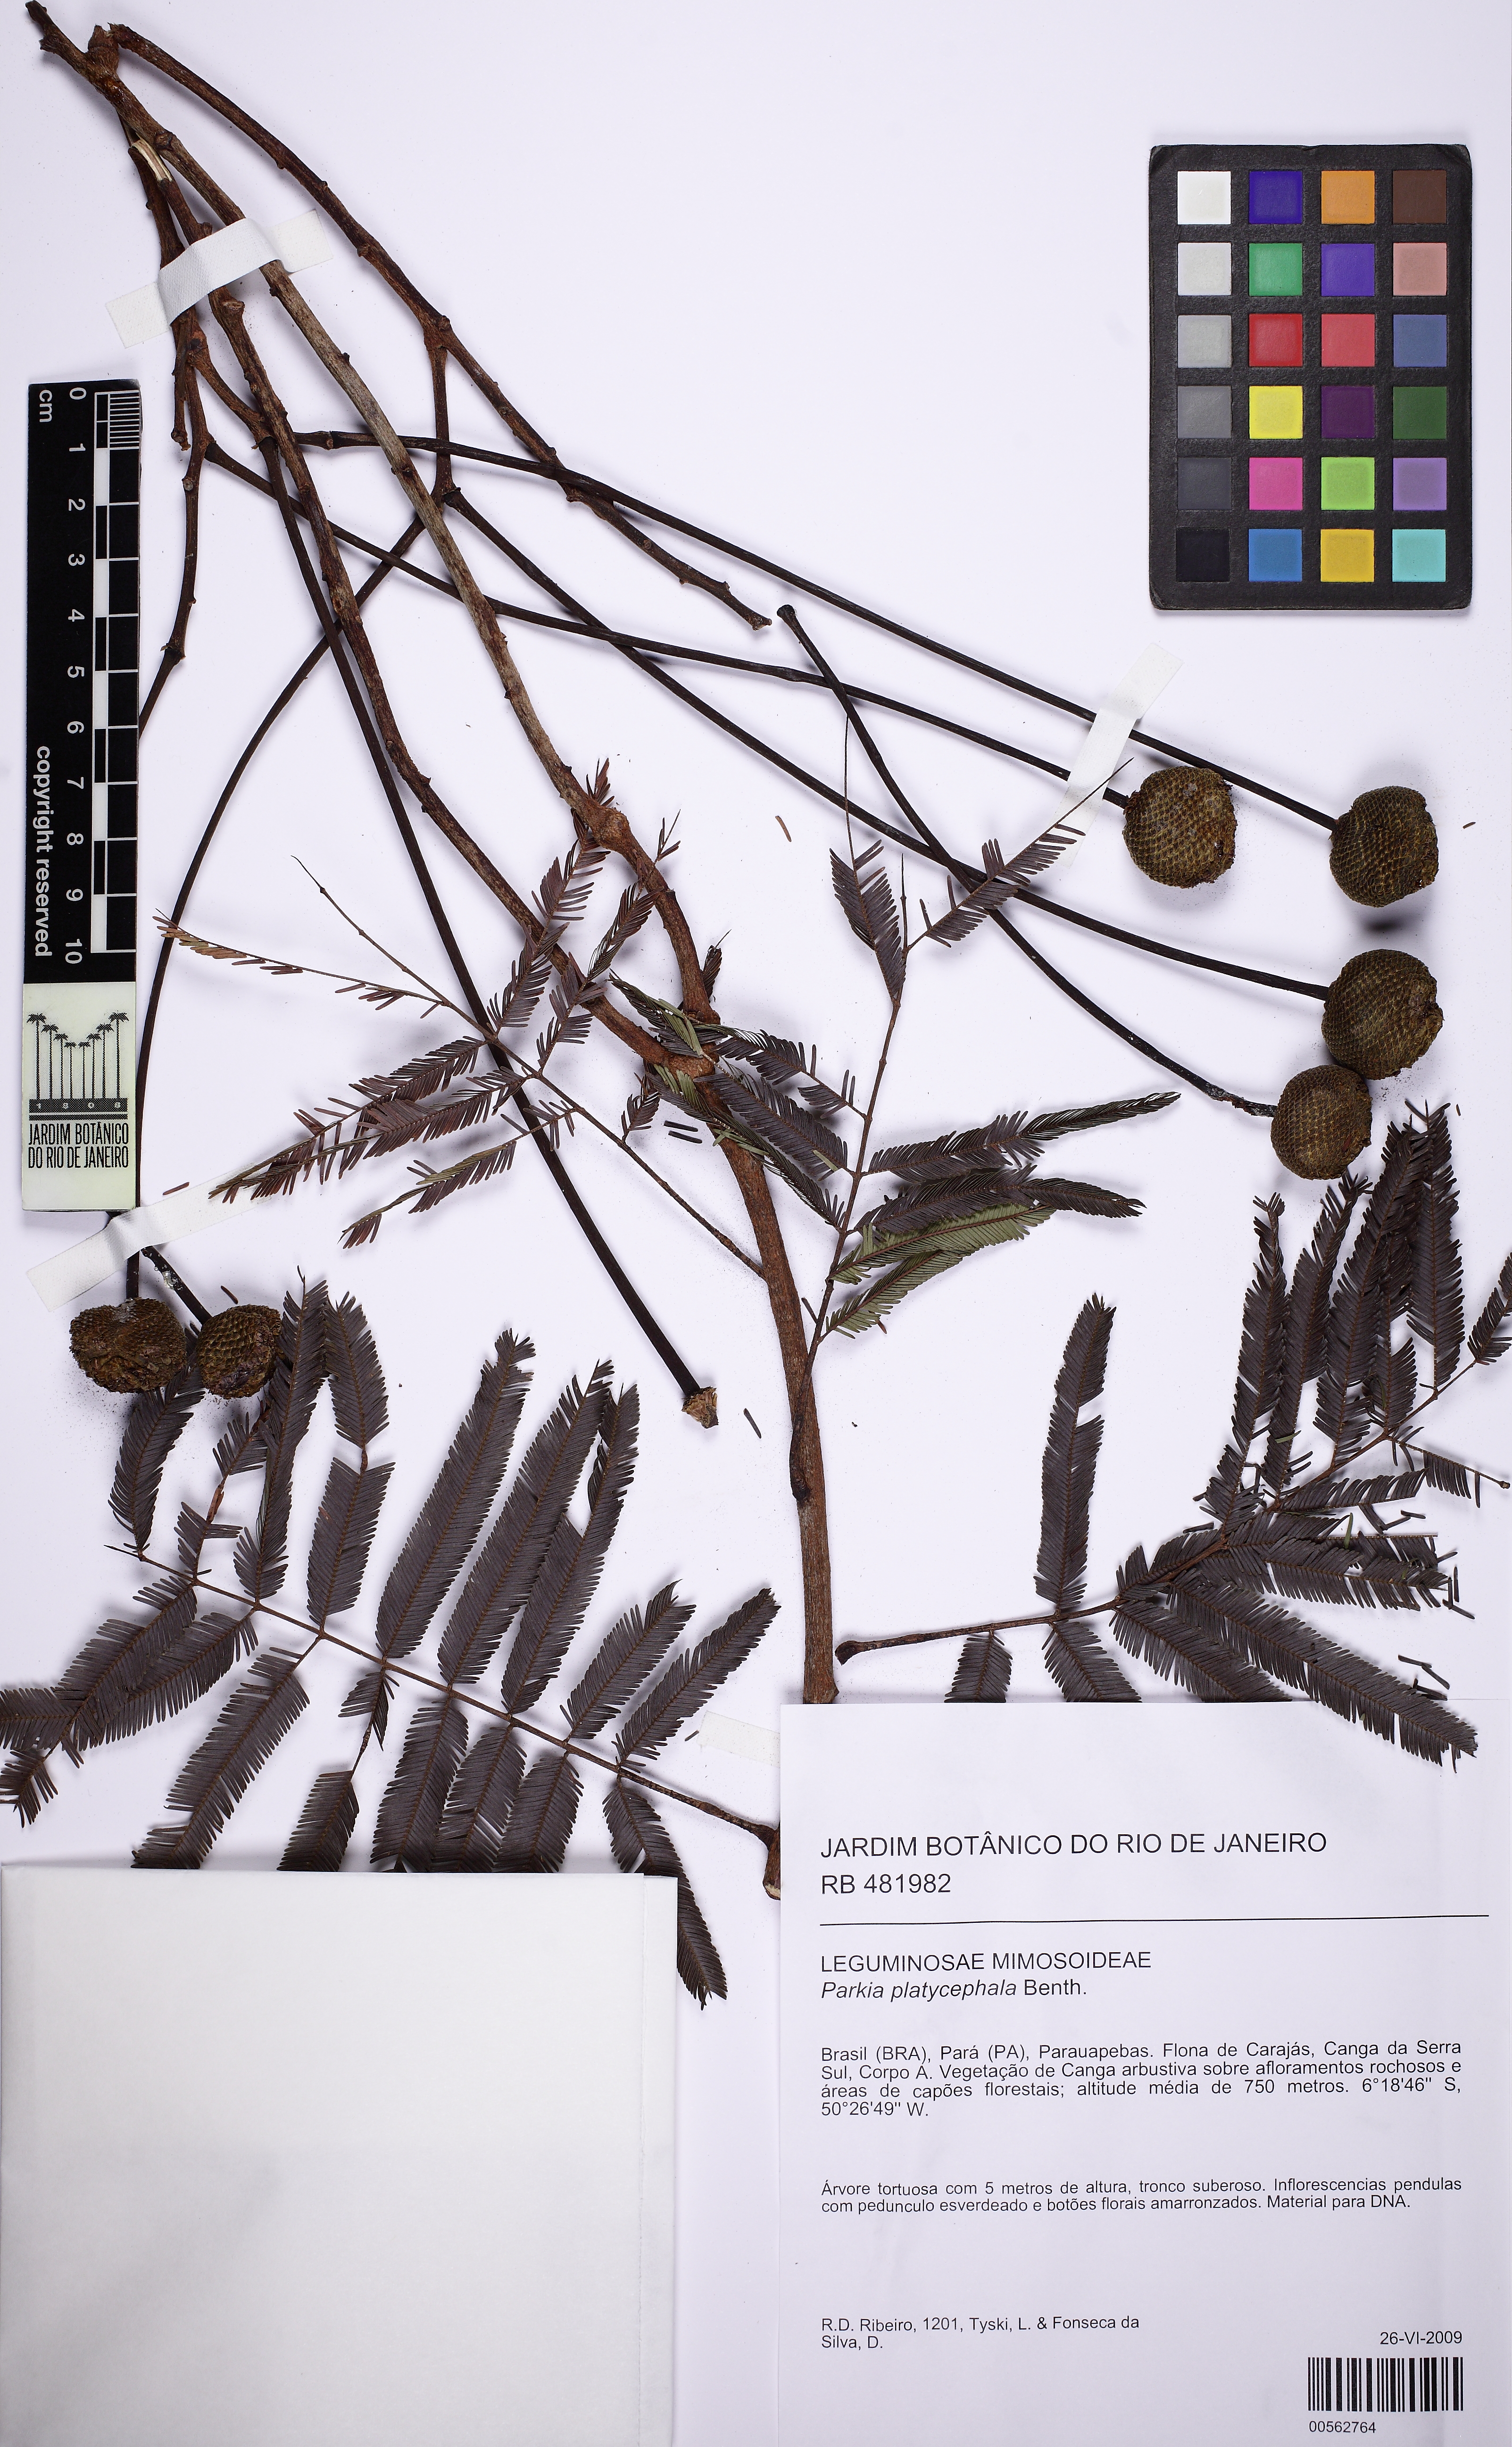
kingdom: Plantae
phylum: Tracheophyta
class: Magnoliopsida
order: Fabales
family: Fabaceae
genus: Parkia
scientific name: Parkia platycephala
